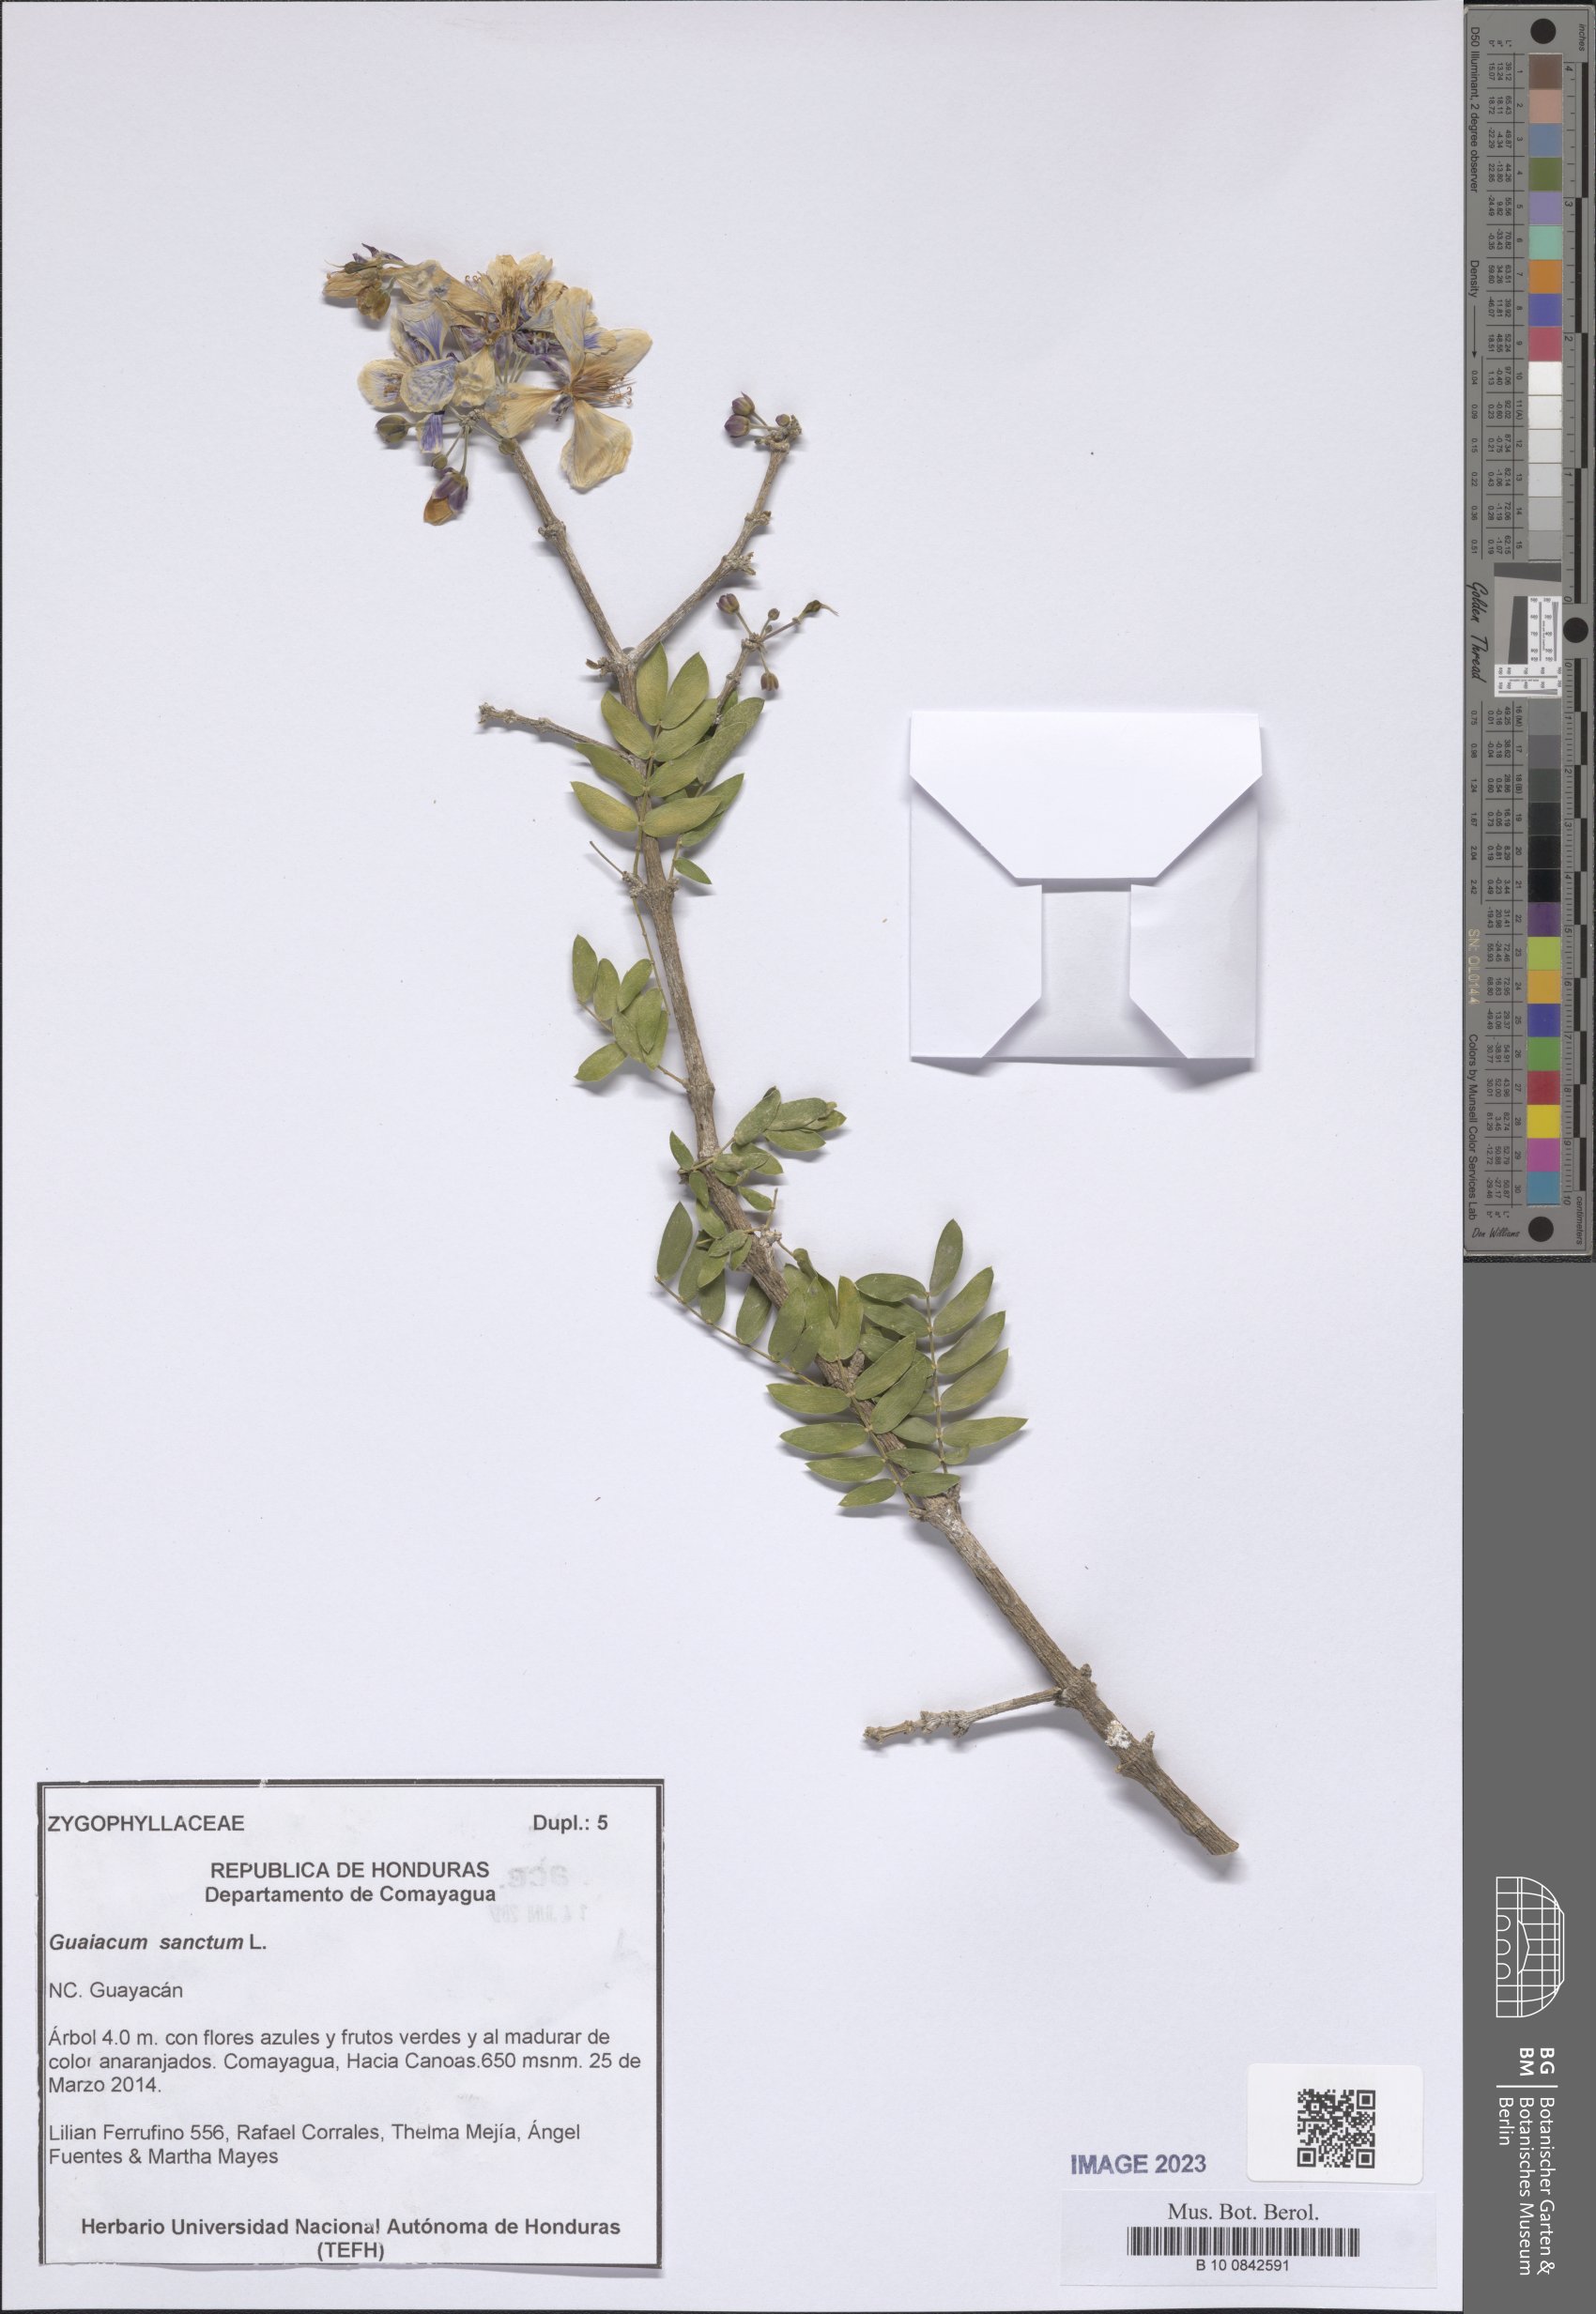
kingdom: Plantae
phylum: Tracheophyta
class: Magnoliopsida
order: Zygophyllales
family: Zygophyllaceae
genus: Guaiacum
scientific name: Guaiacum sanctum
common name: Holywood
